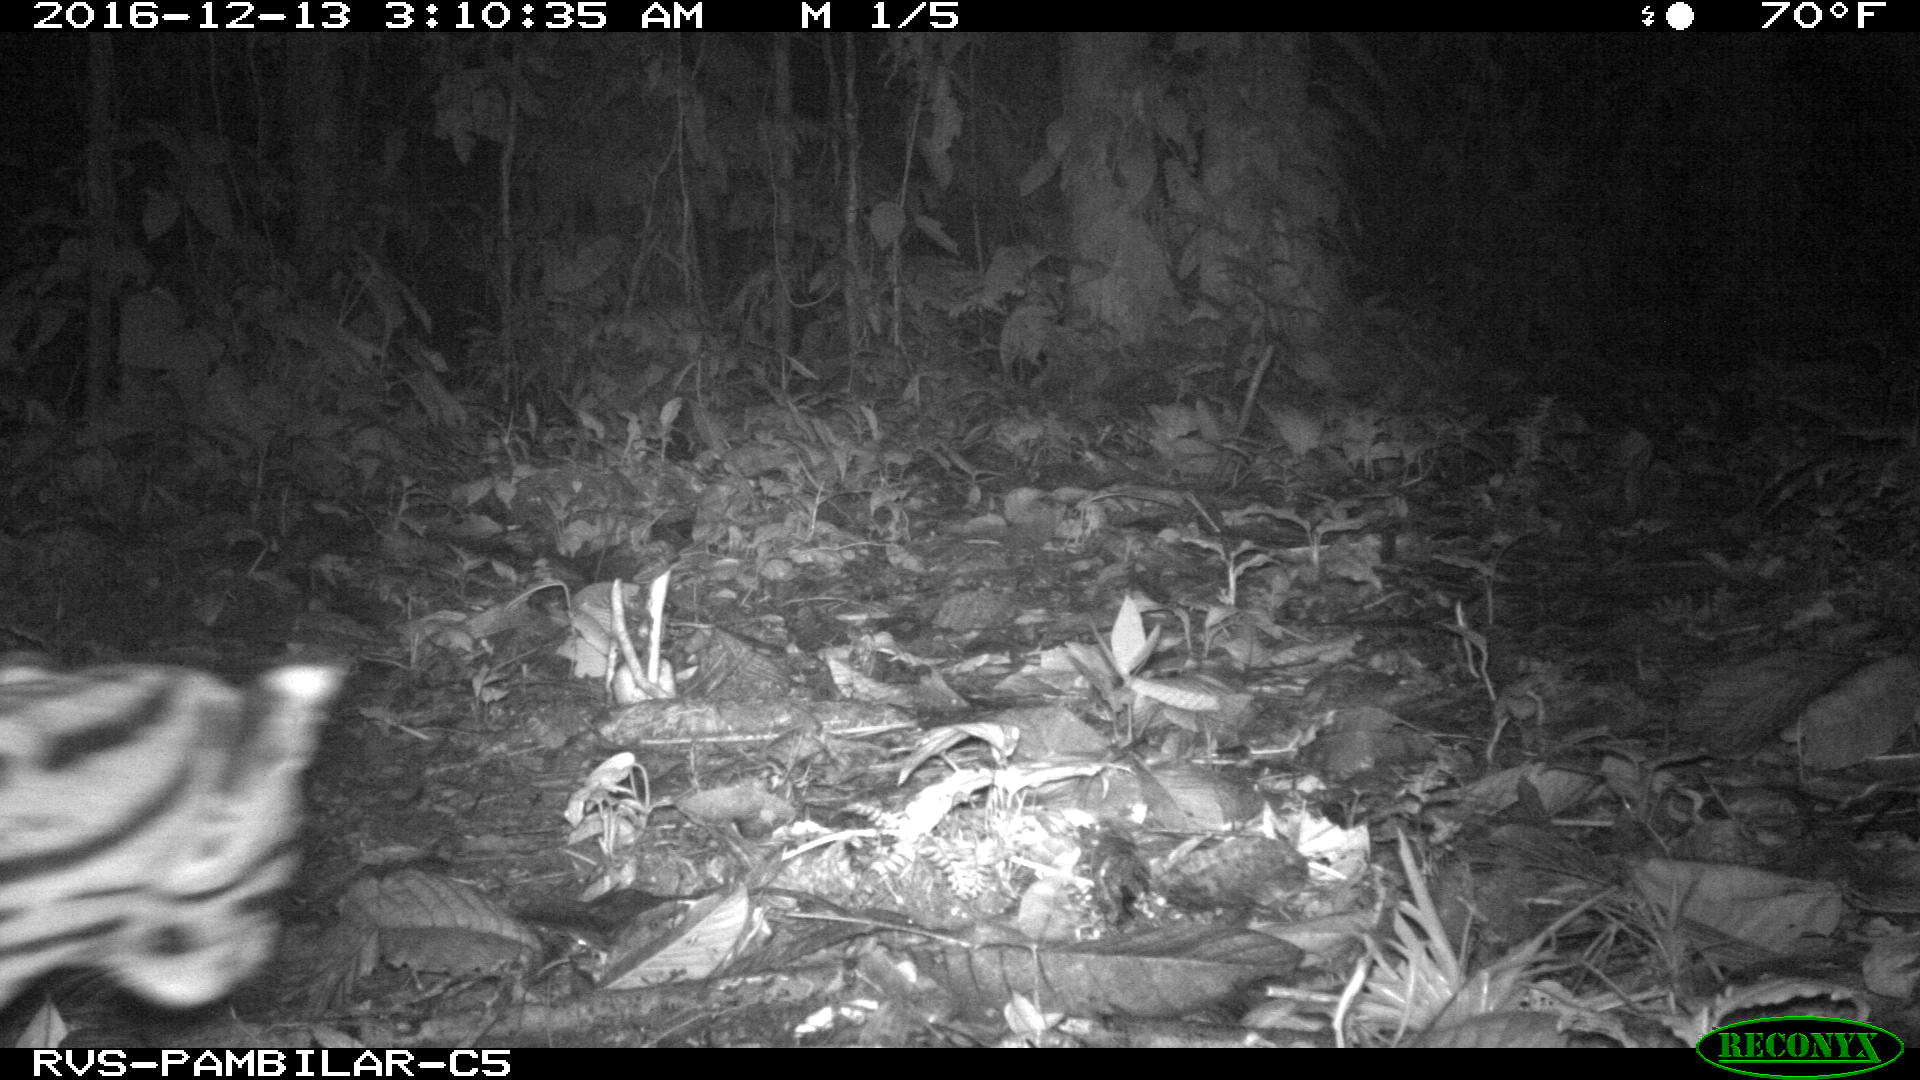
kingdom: Animalia
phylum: Chordata
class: Mammalia
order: Carnivora
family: Felidae
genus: Leopardus
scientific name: Leopardus pardalis
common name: Ocelot
